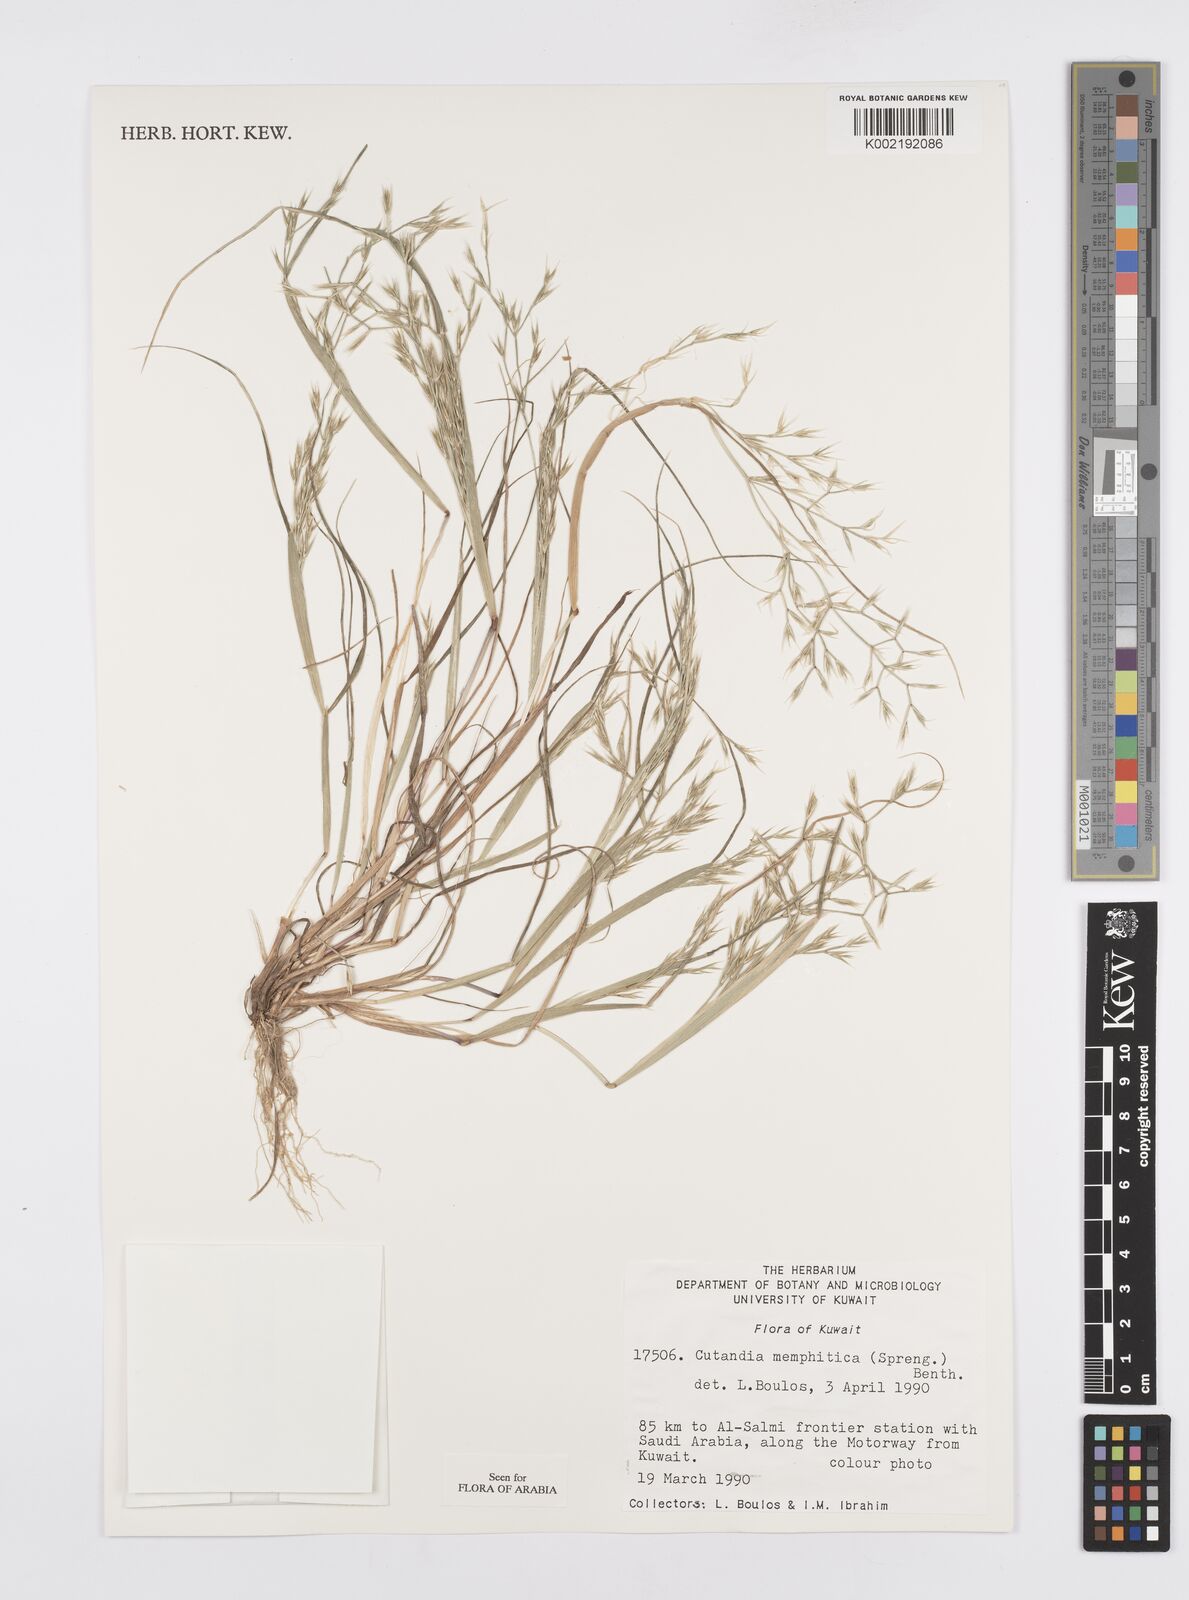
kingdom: Plantae
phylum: Tracheophyta
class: Liliopsida
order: Poales
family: Poaceae
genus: Cutandia
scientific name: Cutandia memphitica
